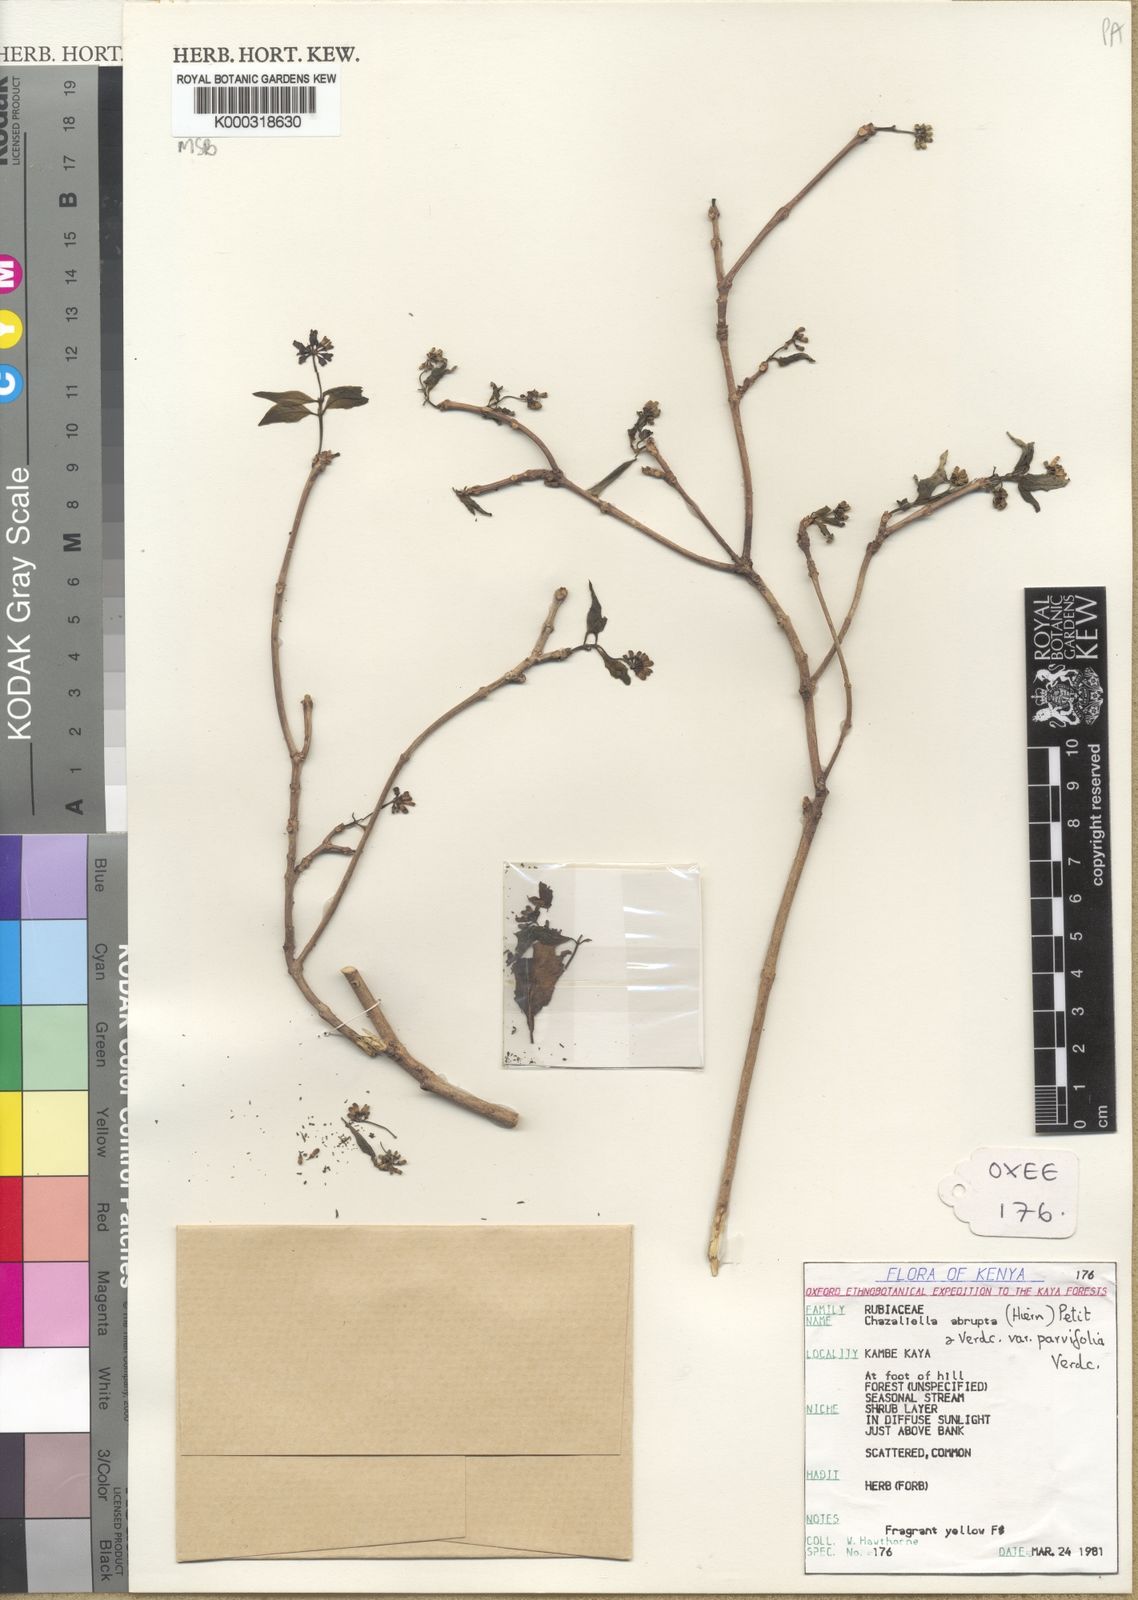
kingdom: Plantae
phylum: Tracheophyta
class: Magnoliopsida
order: Gentianales
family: Rubiaceae
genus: Eumachia
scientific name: Eumachia abrupta
